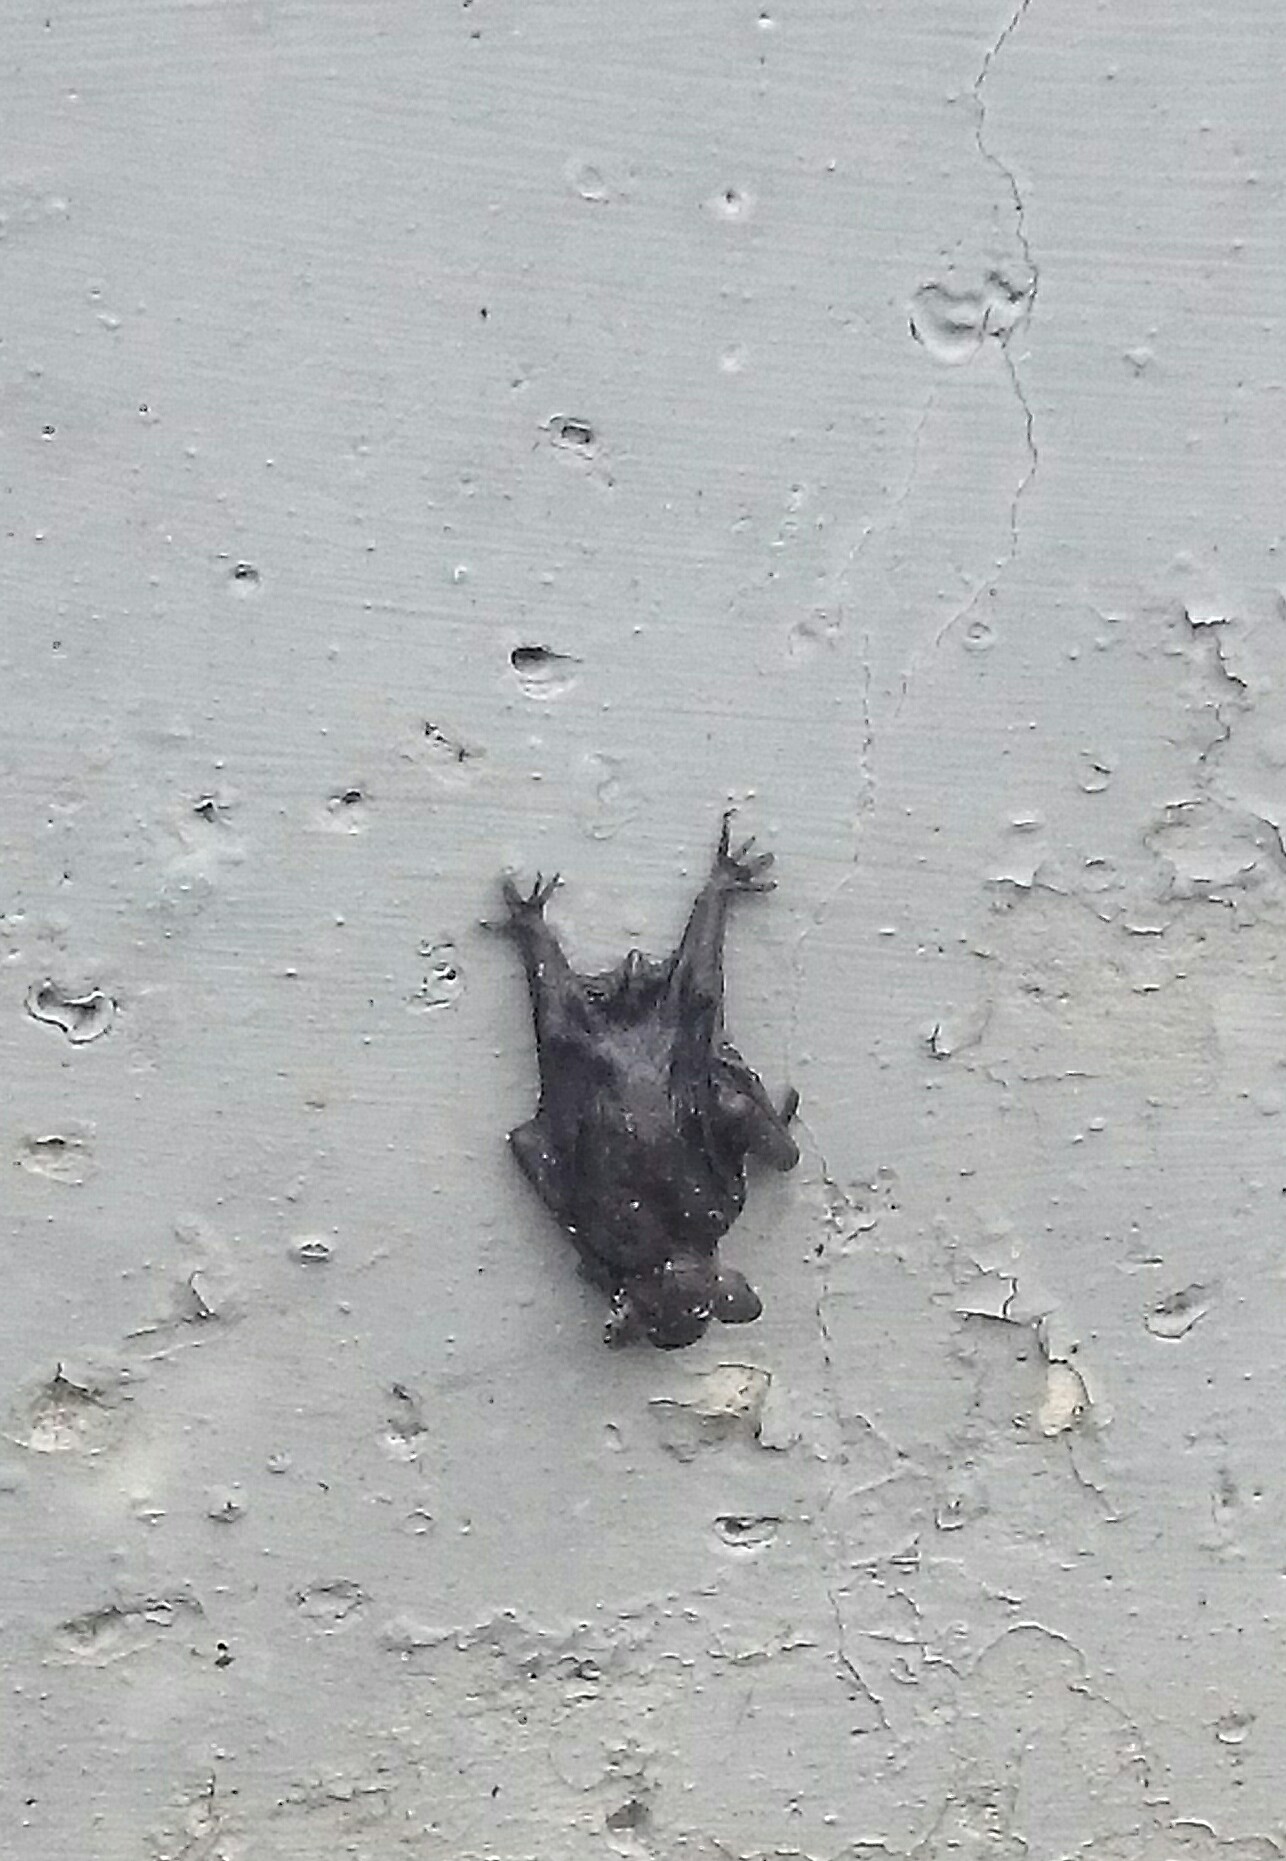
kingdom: Animalia
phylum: Chordata
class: Mammalia
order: Chiroptera
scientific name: Chiroptera
